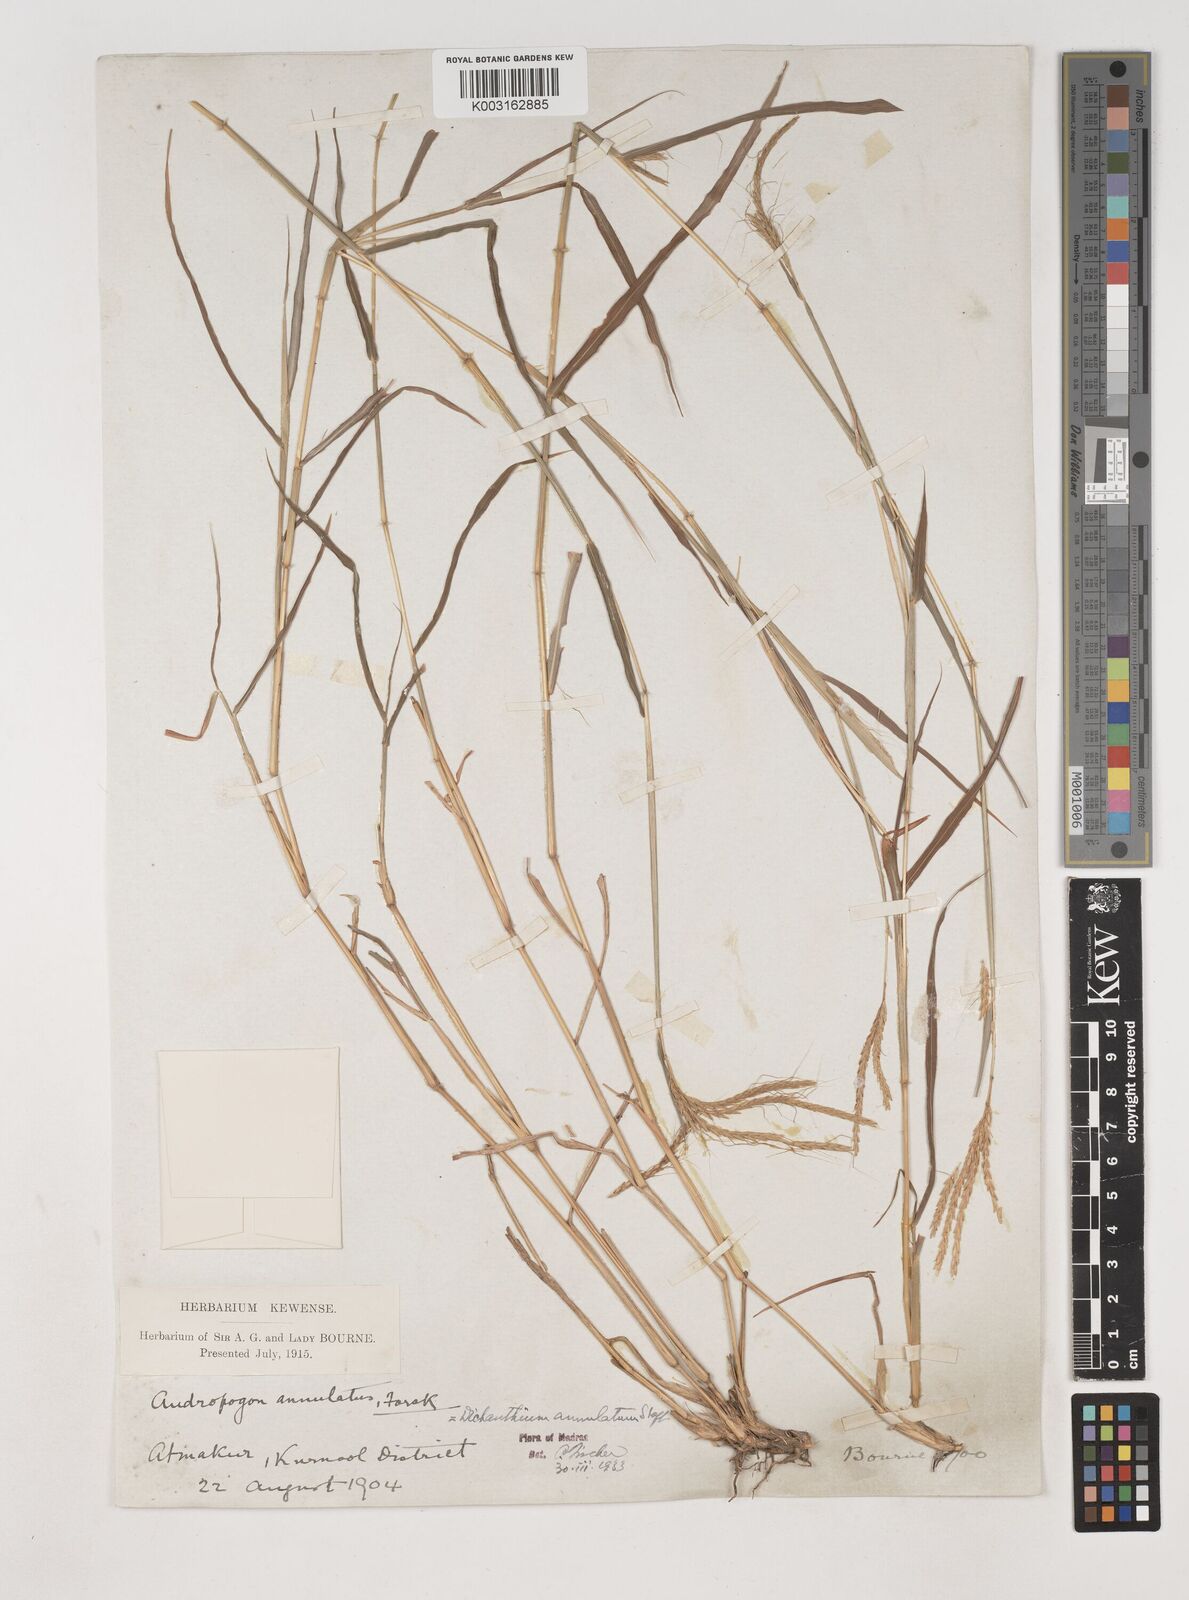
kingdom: Plantae
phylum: Tracheophyta
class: Liliopsida
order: Poales
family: Poaceae
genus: Dichanthium
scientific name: Dichanthium annulatum
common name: Kleberg's bluestem
